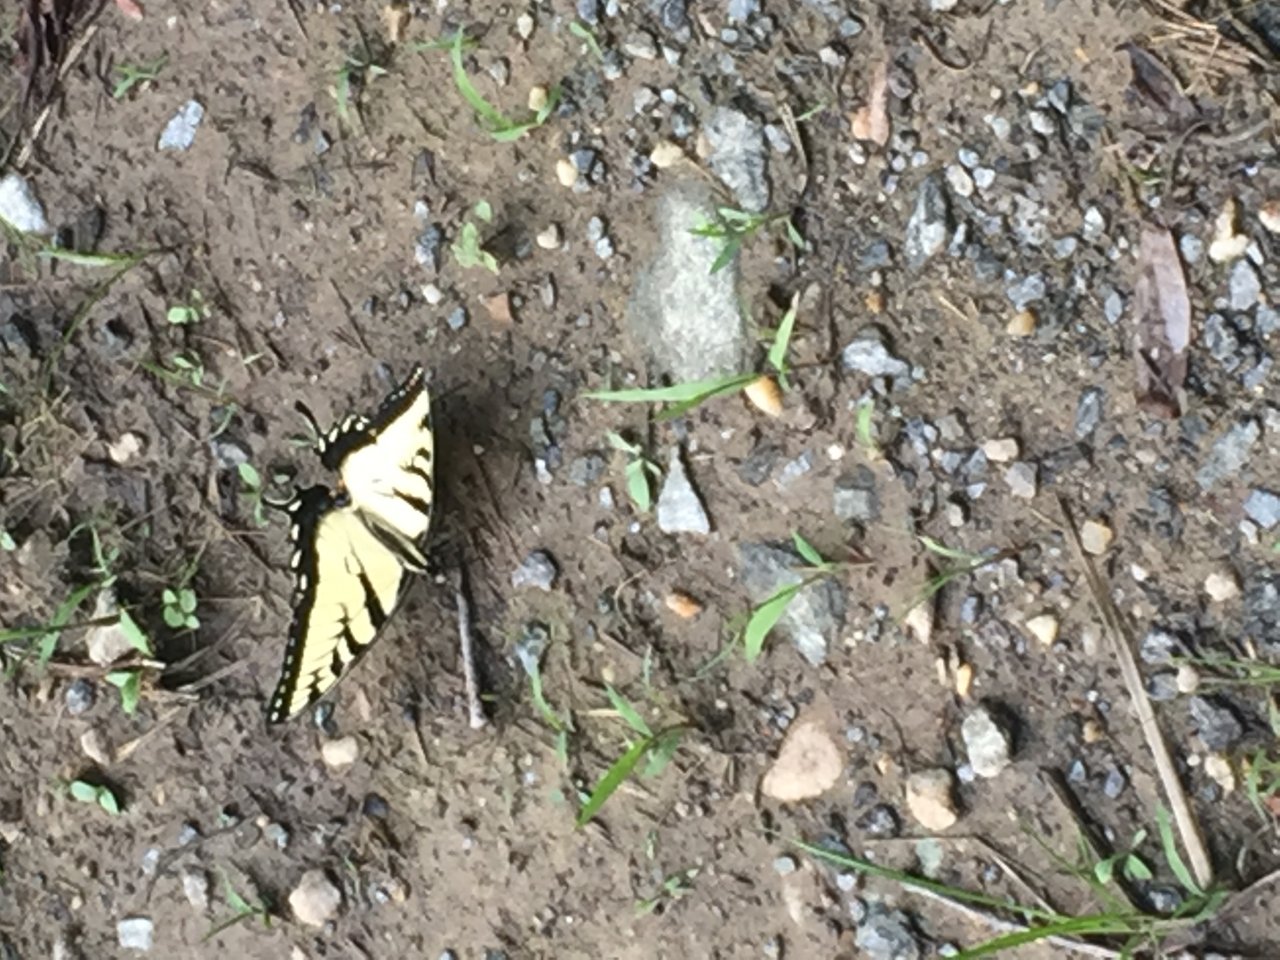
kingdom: Animalia
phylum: Arthropoda
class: Insecta
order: Lepidoptera
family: Papilionidae
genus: Pterourus
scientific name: Pterourus glaucus
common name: Eastern Tiger Swallowtail
